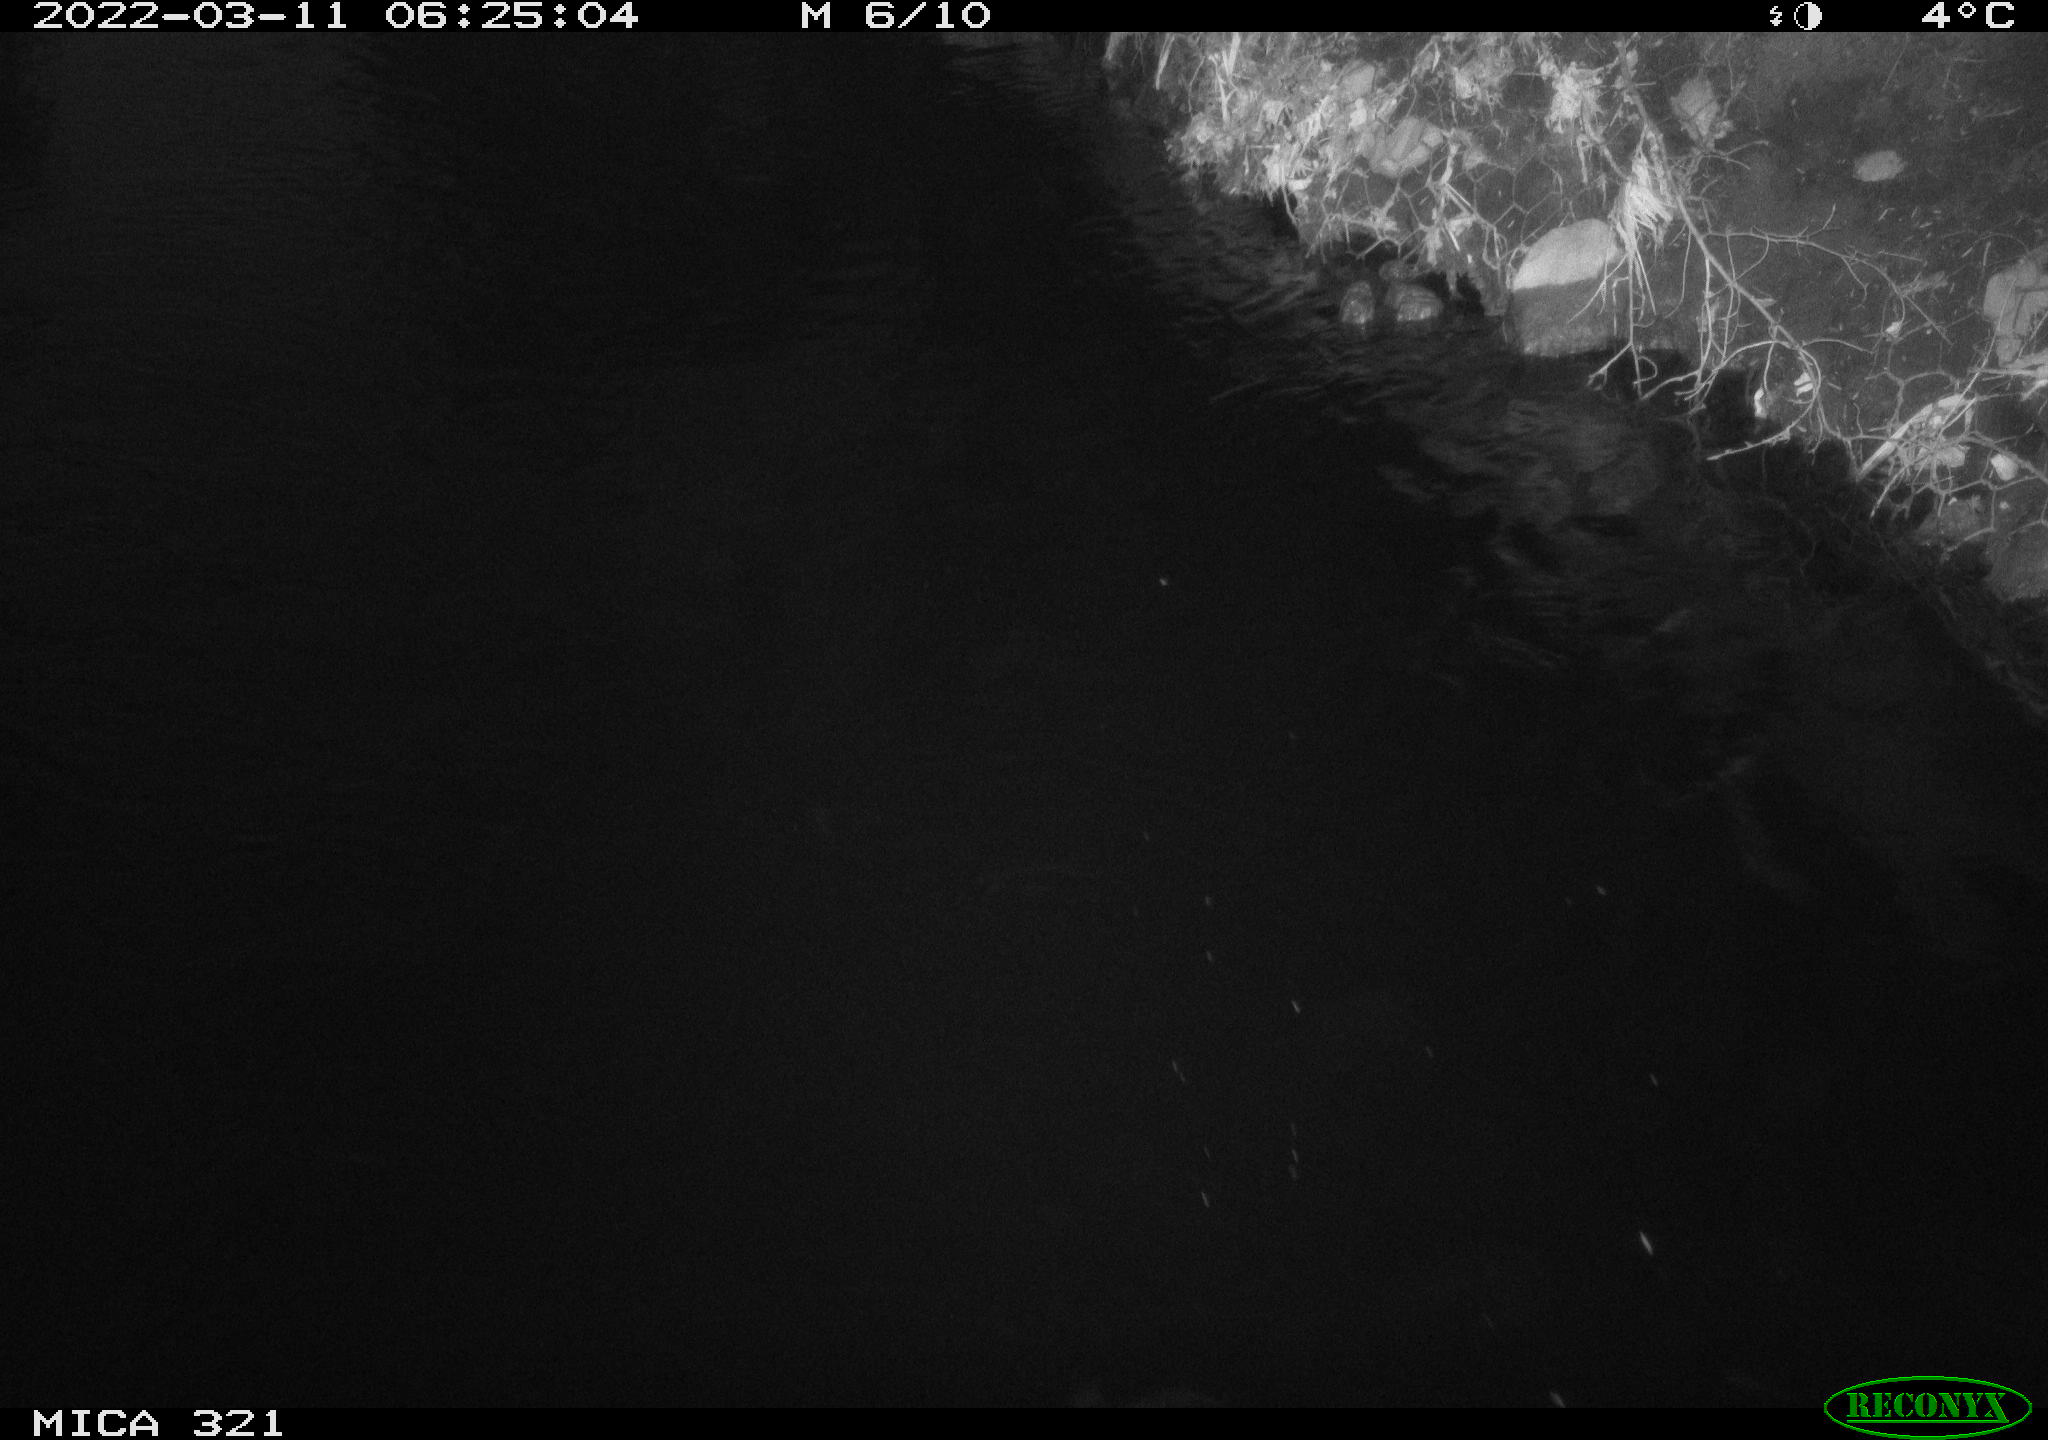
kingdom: Animalia
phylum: Chordata
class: Aves
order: Anseriformes
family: Anatidae
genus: Anas
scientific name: Anas platyrhynchos
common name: Mallard
